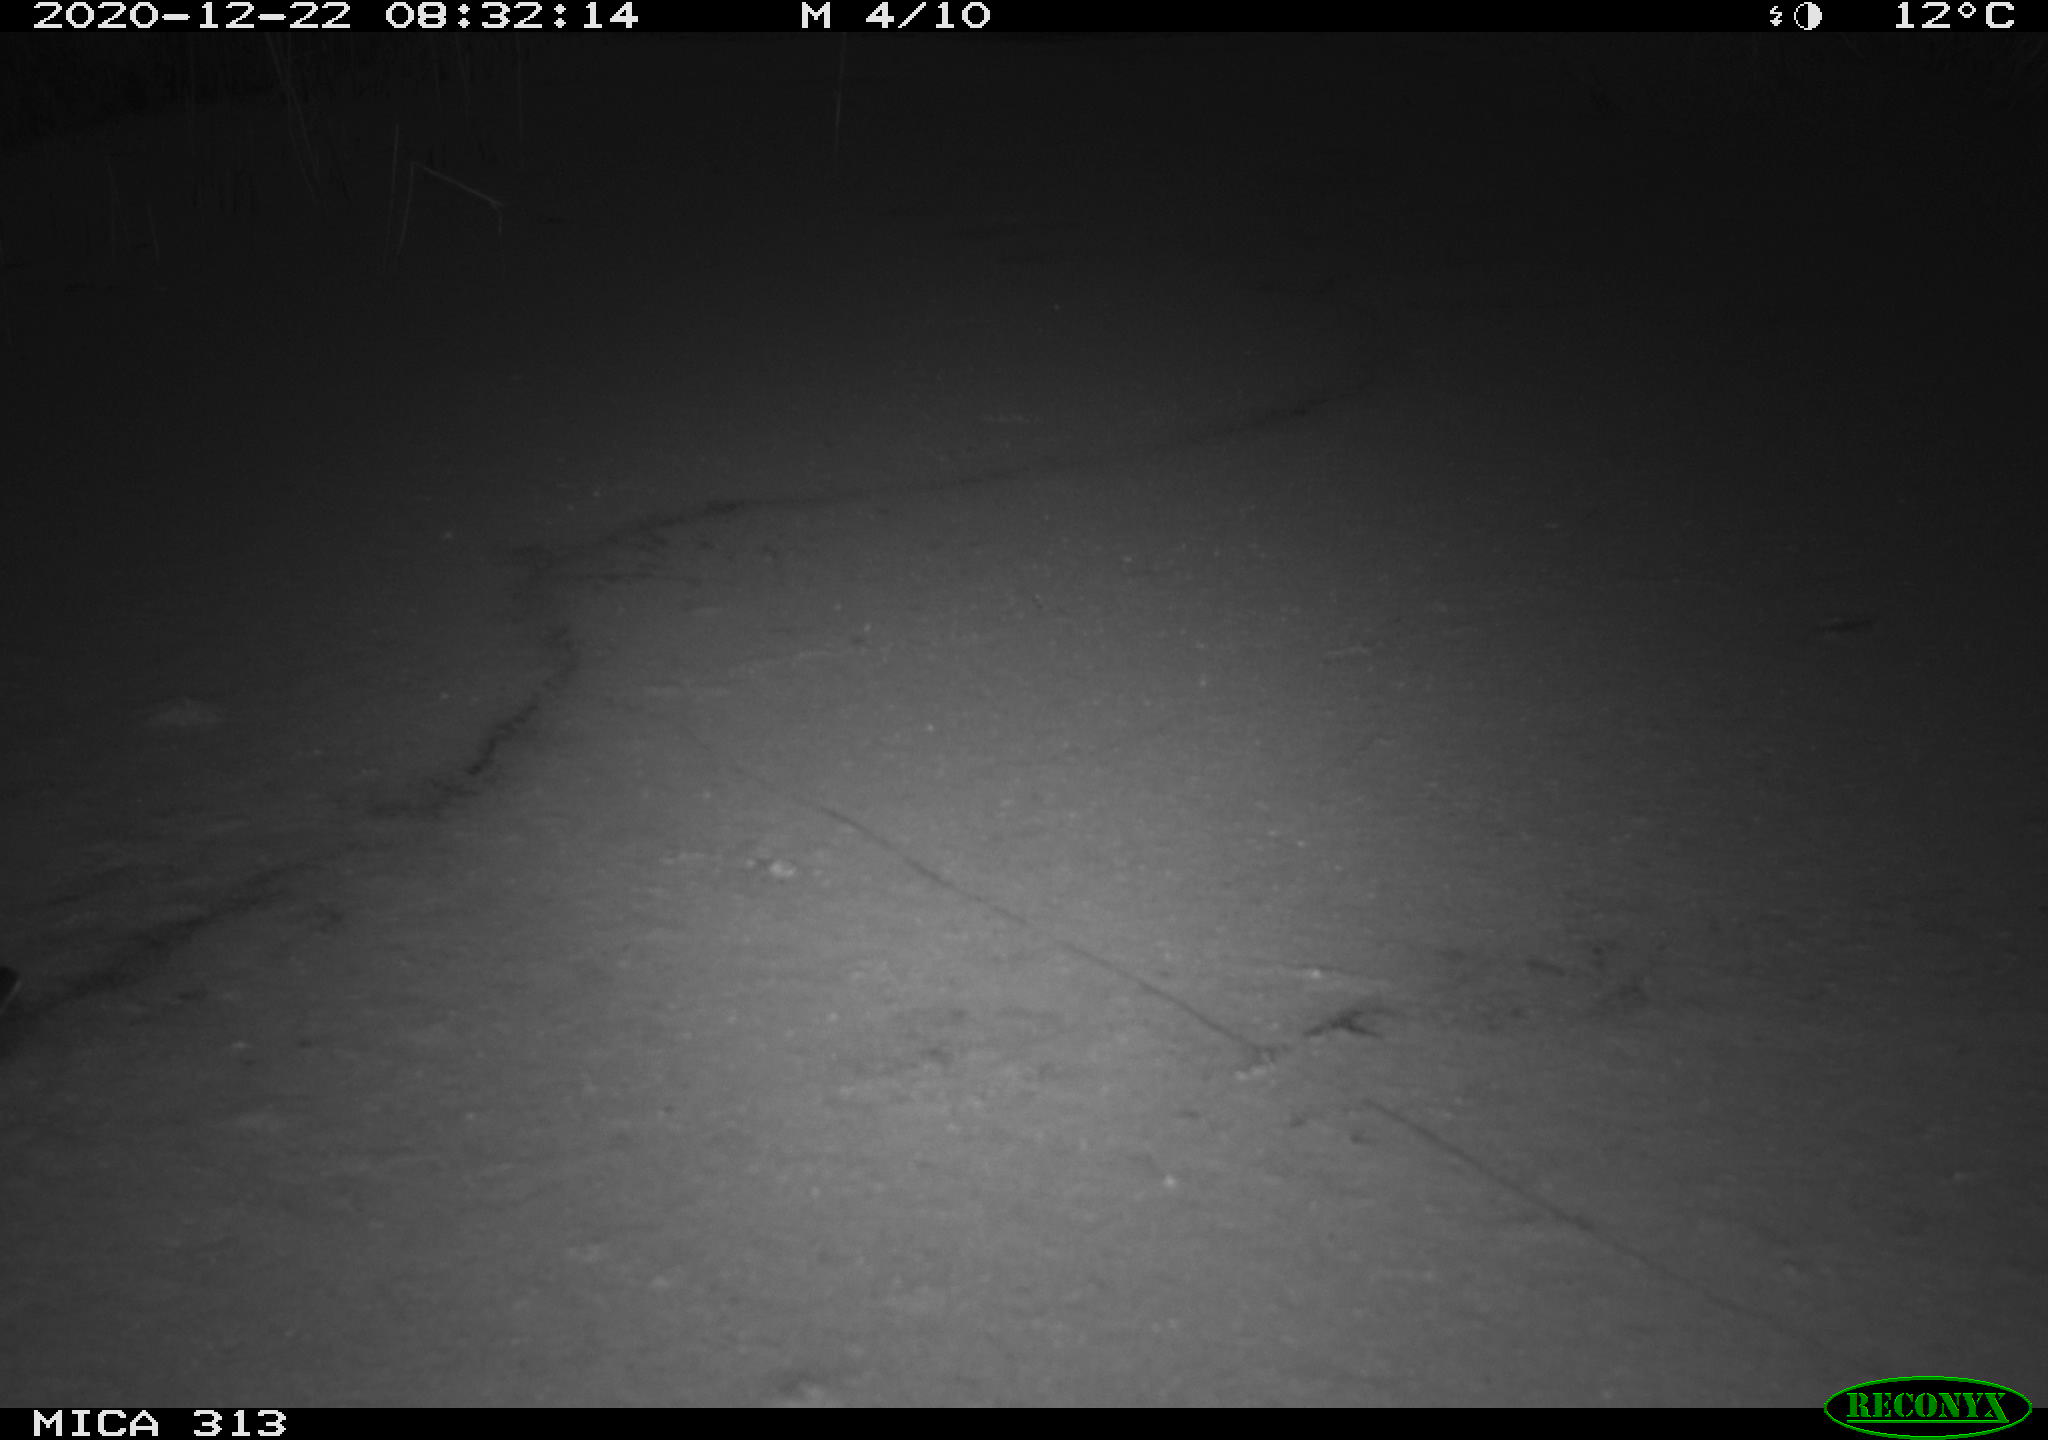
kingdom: Animalia
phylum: Chordata
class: Aves
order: Gruiformes
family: Rallidae
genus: Gallinula
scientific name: Gallinula chloropus
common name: Common moorhen
